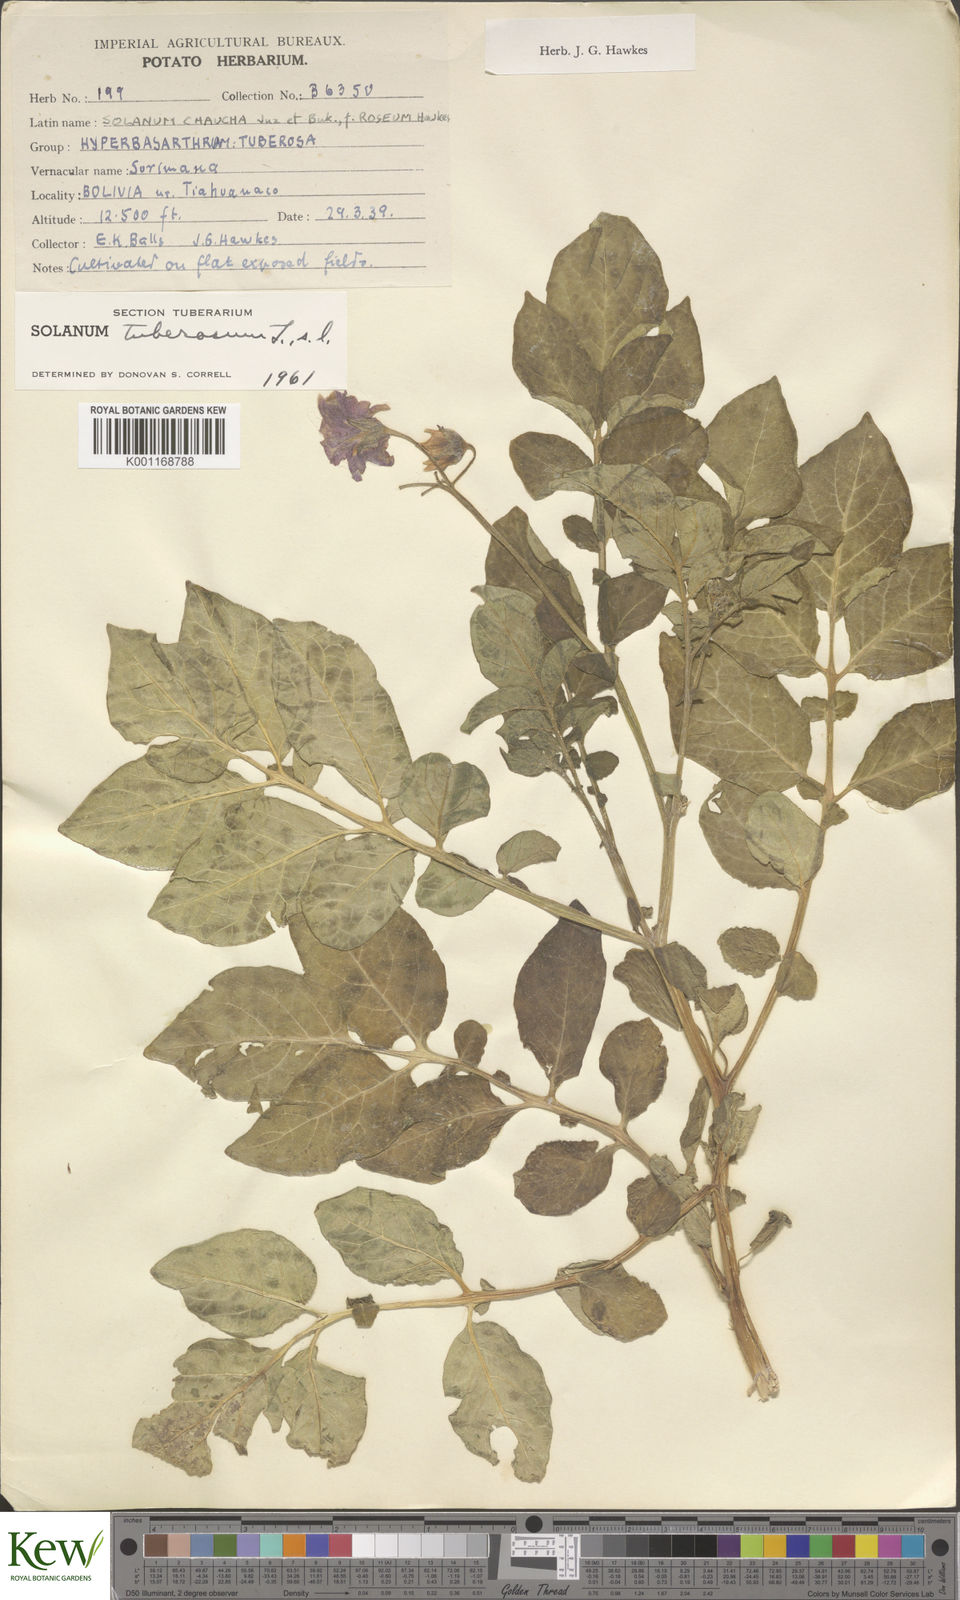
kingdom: Plantae
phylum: Tracheophyta
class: Magnoliopsida
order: Solanales
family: Solanaceae
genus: Solanum
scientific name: Solanum chaucha
